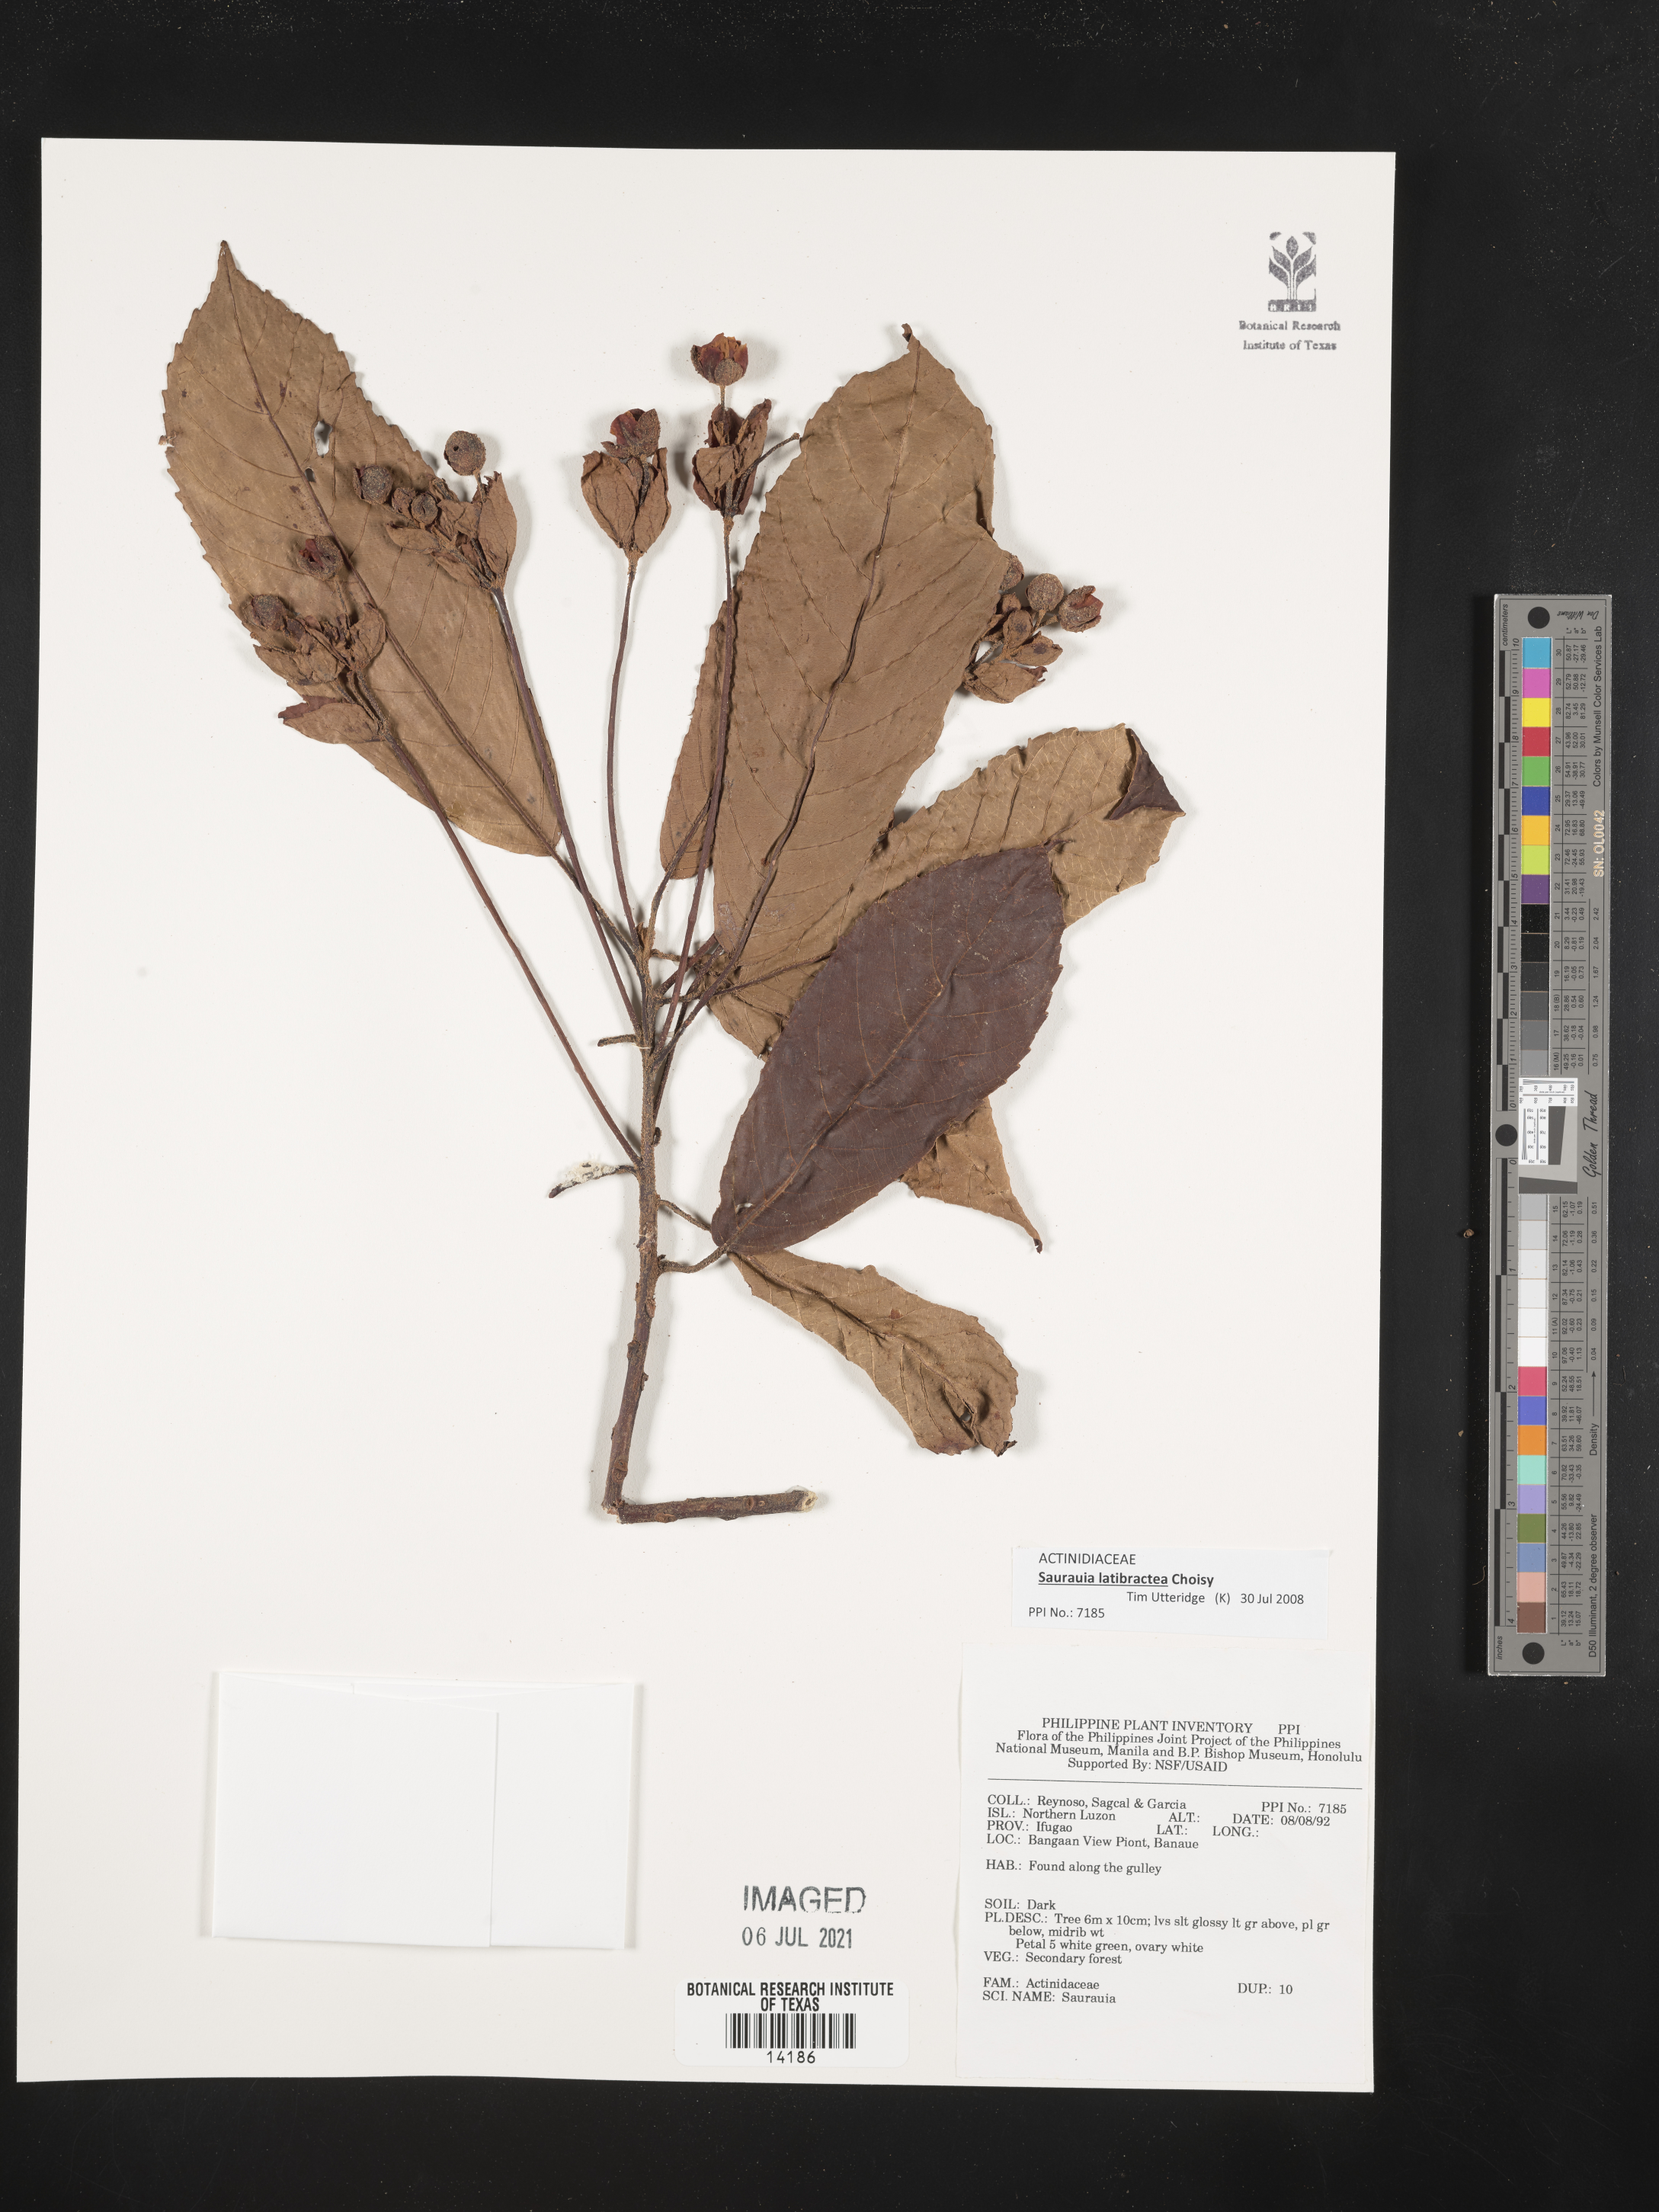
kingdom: Plantae
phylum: Tracheophyta
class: Magnoliopsida
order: Ericales
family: Actinidiaceae
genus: Saurauia
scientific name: Saurauia latibractea
